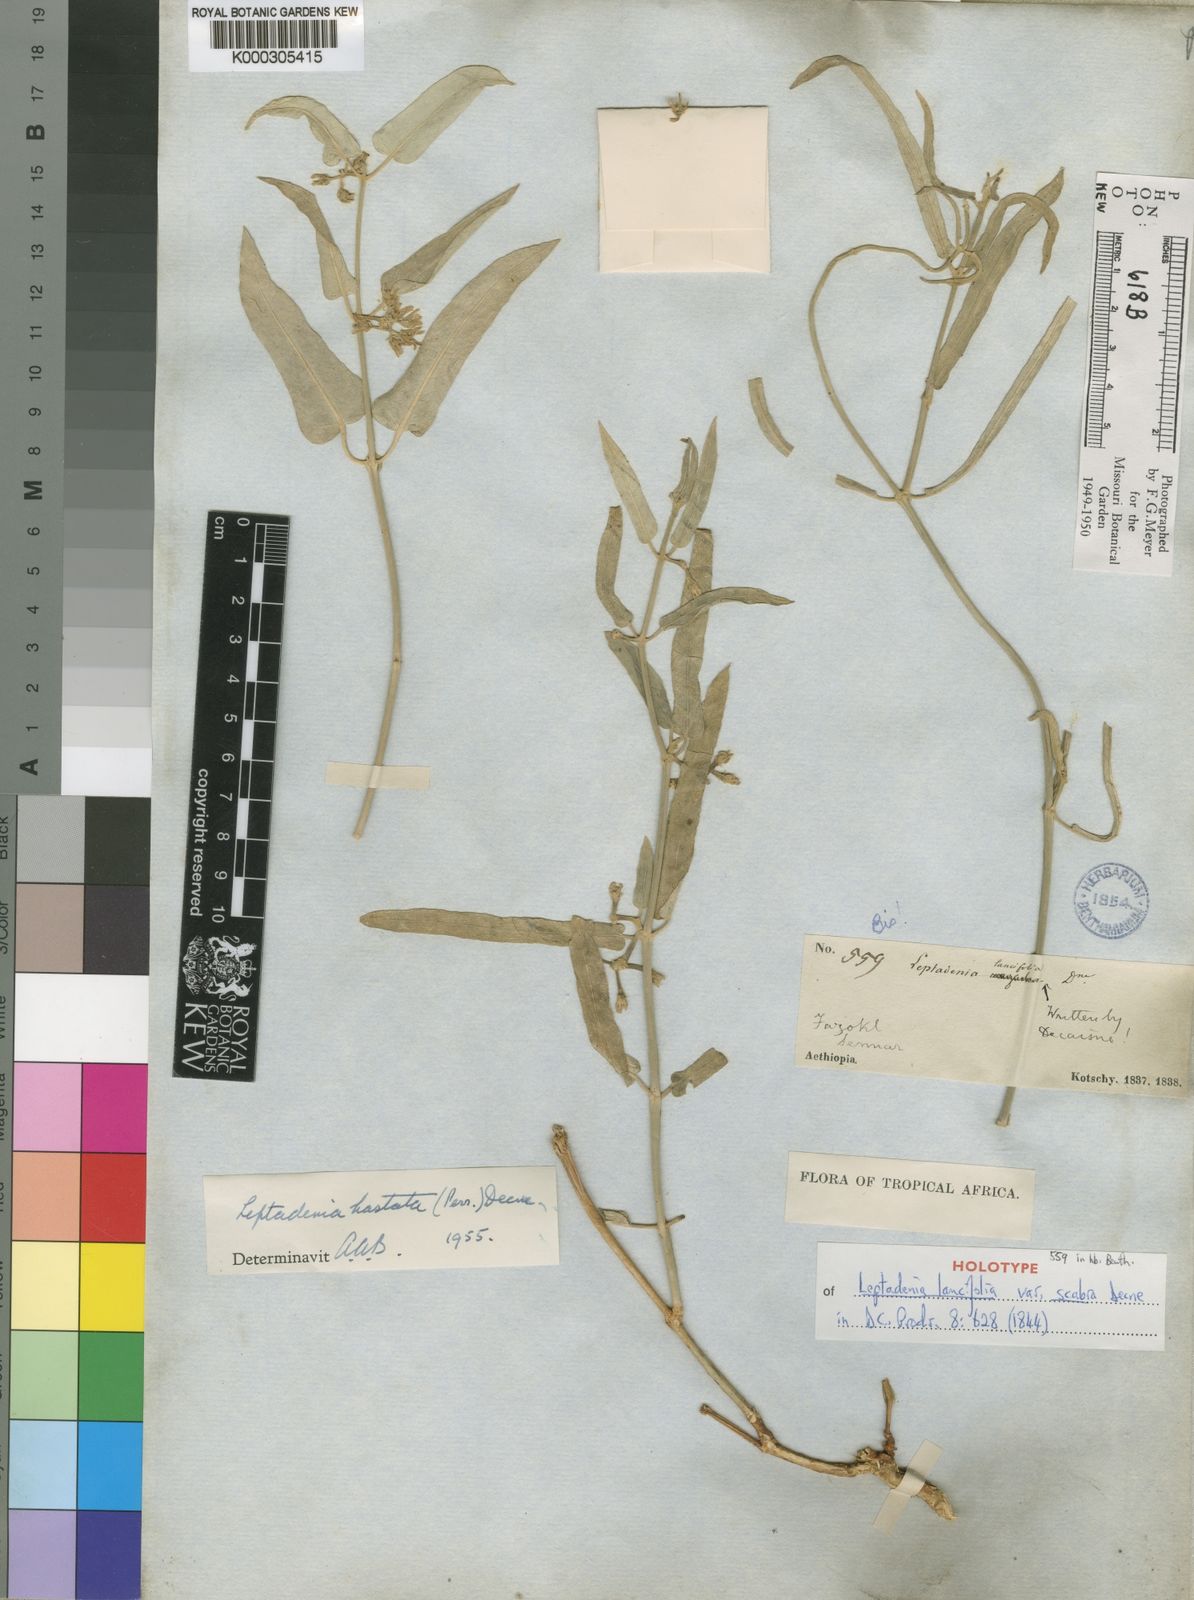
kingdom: Plantae
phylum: Tracheophyta
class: Magnoliopsida
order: Gentianales
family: Apocynaceae
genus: Leptadenia
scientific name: Leptadenia
